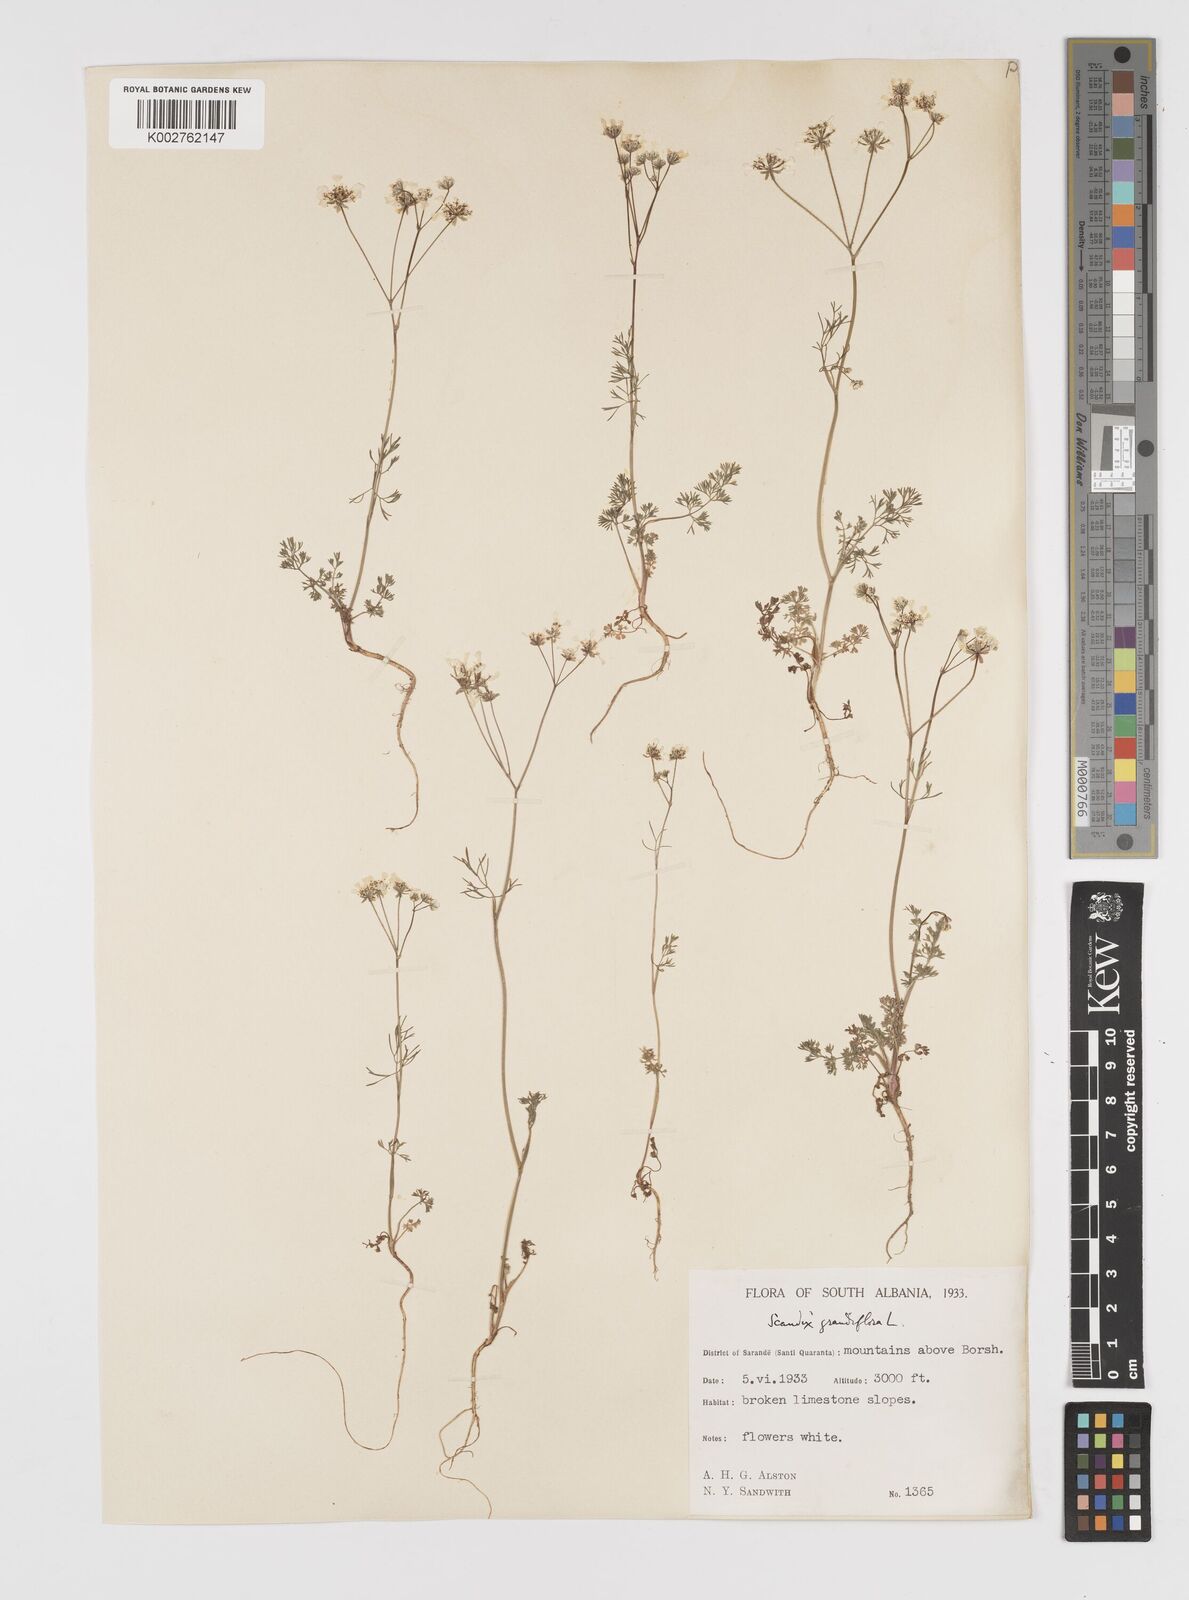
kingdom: Plantae
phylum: Tracheophyta
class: Magnoliopsida
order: Apiales
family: Apiaceae
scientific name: Apiaceae
